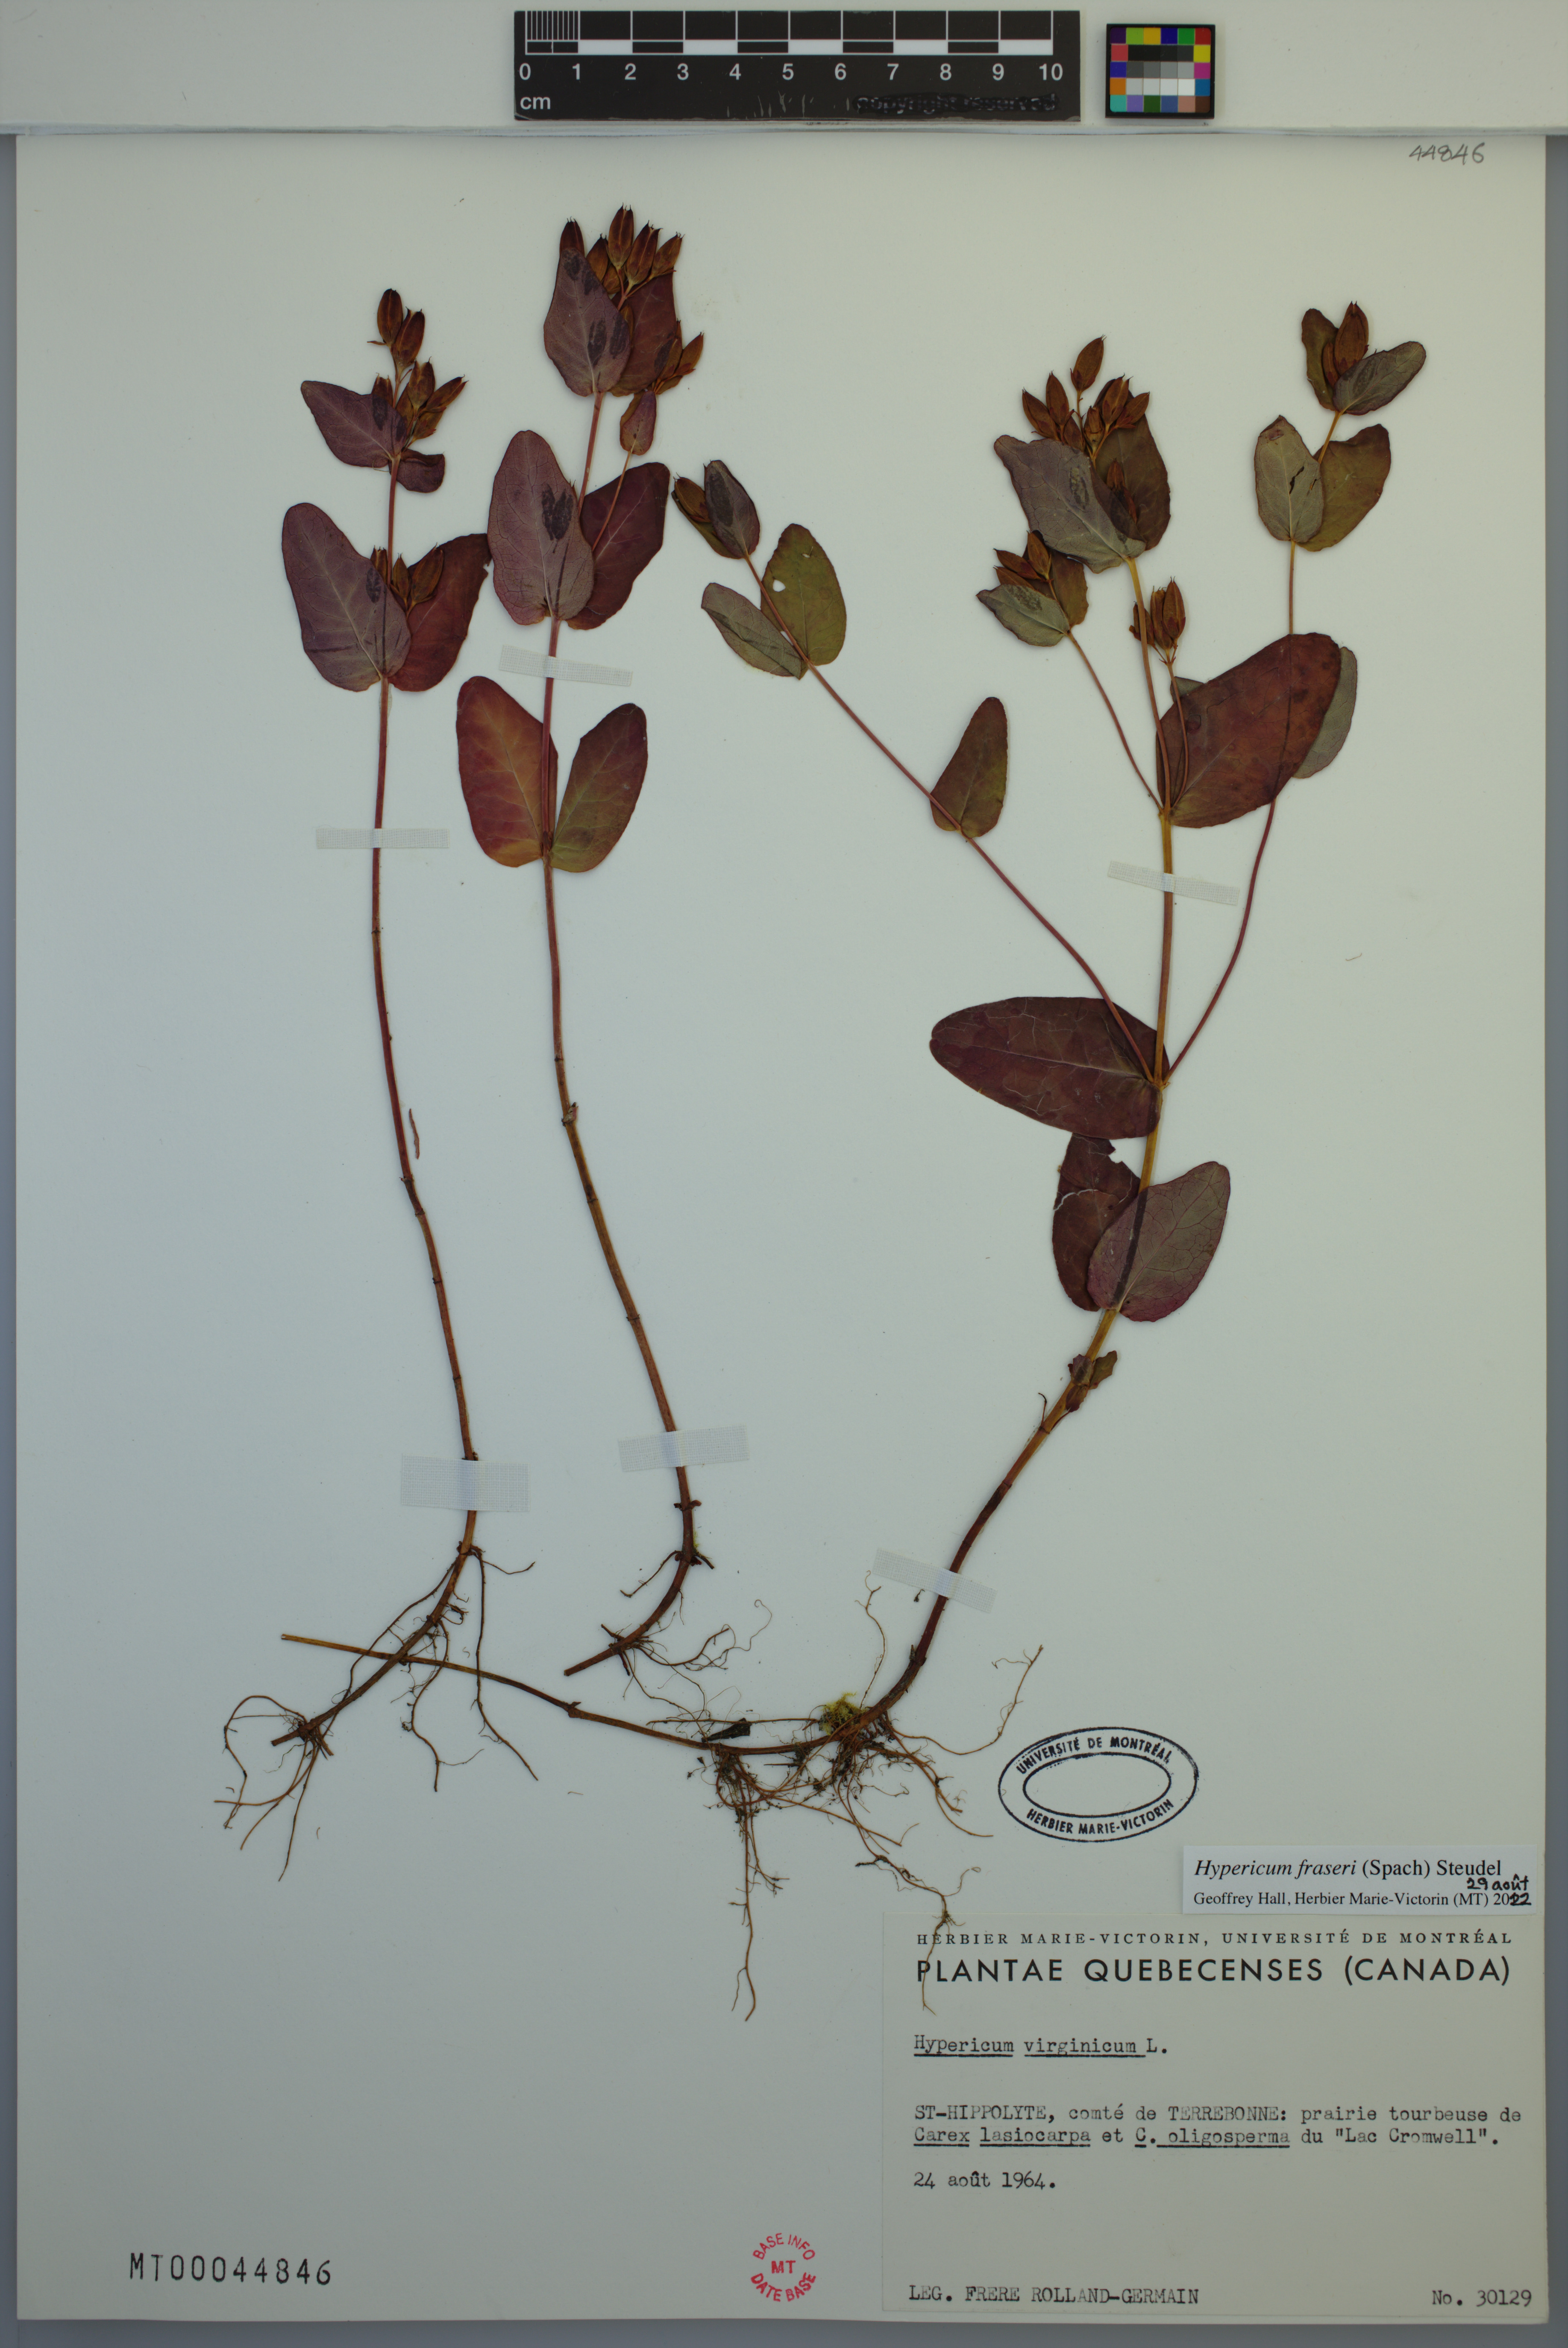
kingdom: Plantae
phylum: Tracheophyta
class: Magnoliopsida
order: Malpighiales
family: Hypericaceae
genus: Triadenum
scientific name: Triadenum fraseri
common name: Fraser's marsh st. johnswort
